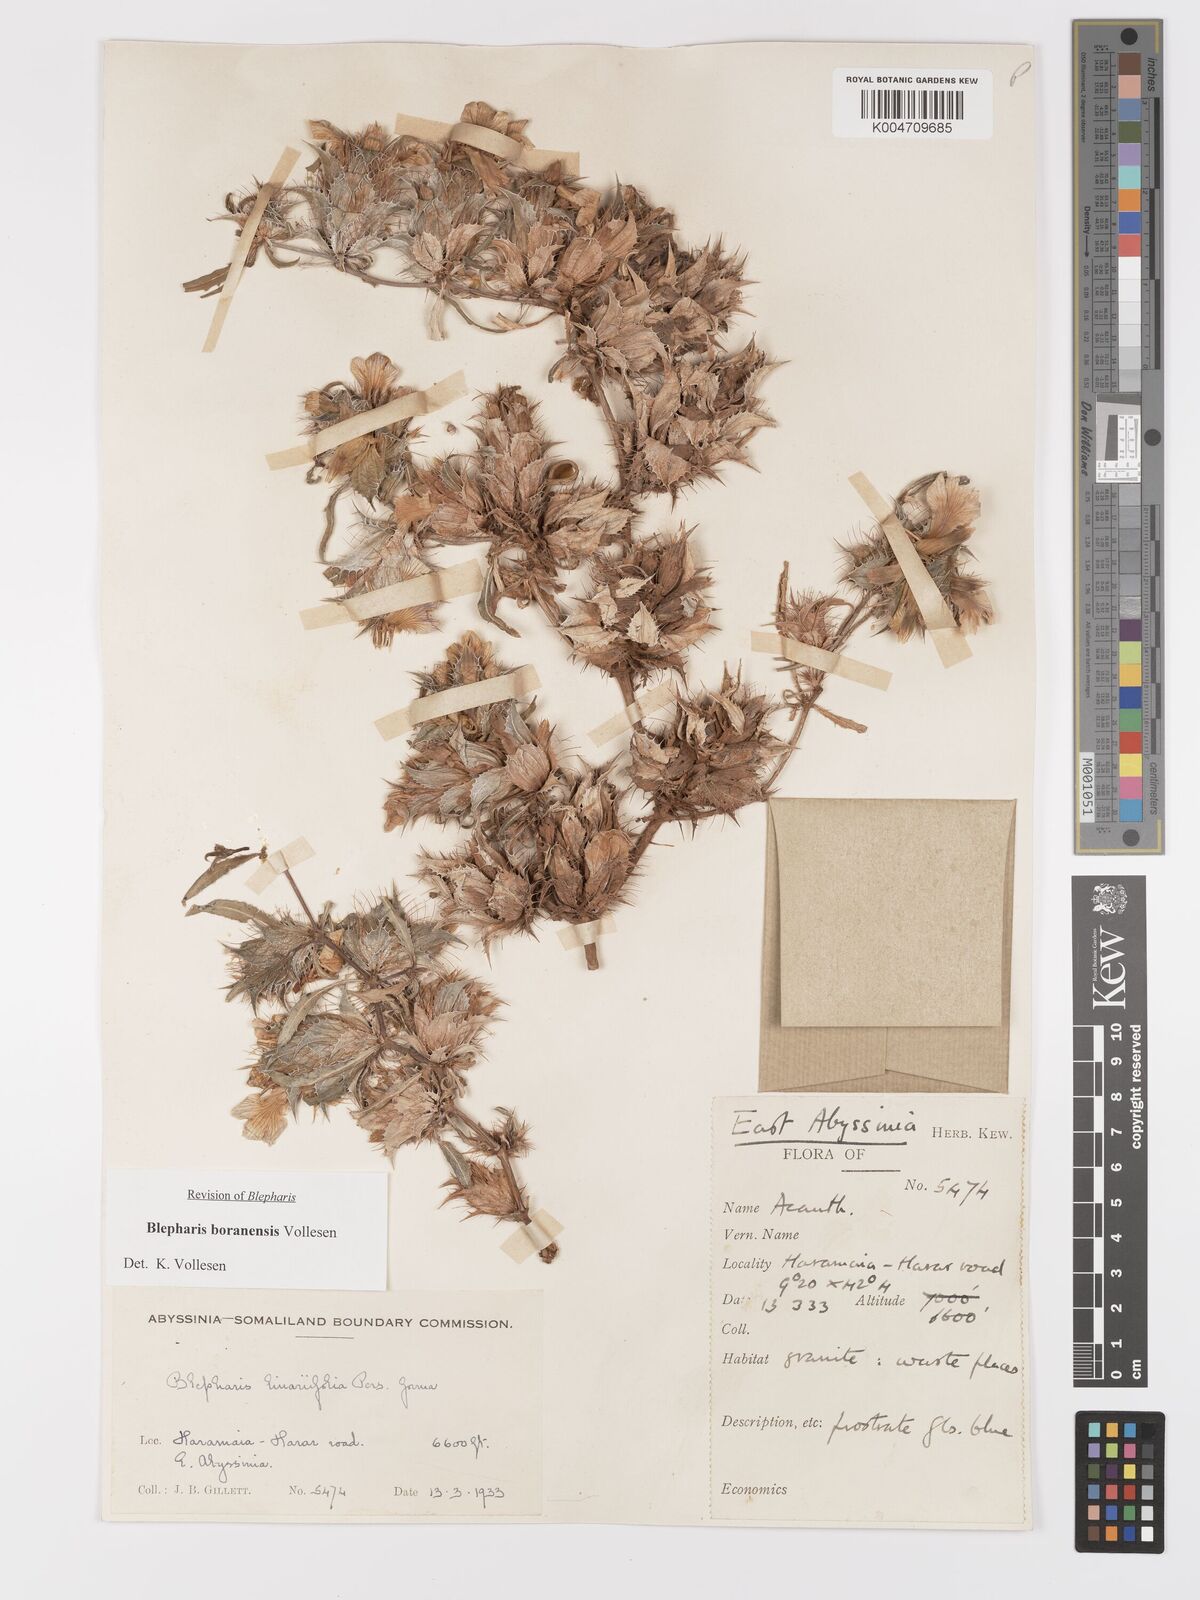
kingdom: Plantae
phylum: Tracheophyta
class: Magnoliopsida
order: Lamiales
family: Acanthaceae
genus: Blepharis
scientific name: Blepharis boranensis
